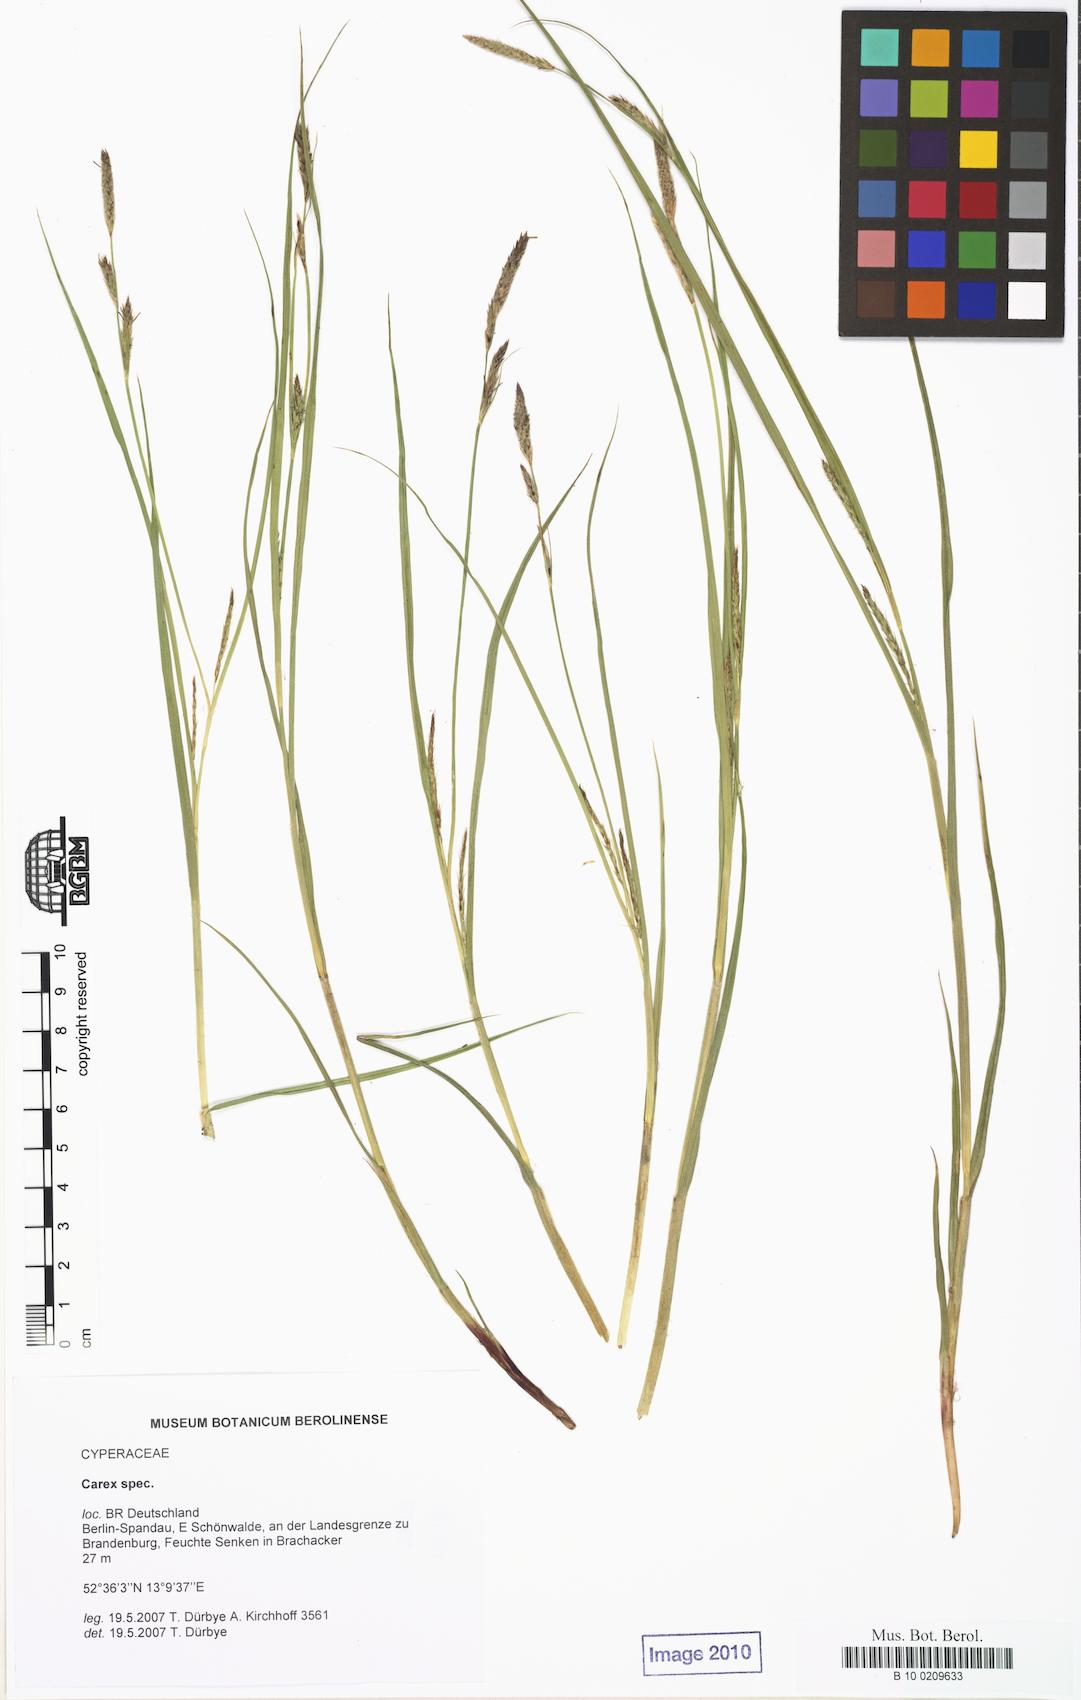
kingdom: Plantae
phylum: Tracheophyta
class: Liliopsida
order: Poales
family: Cyperaceae
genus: Carex
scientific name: Carex hirta
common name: Hairy sedge
